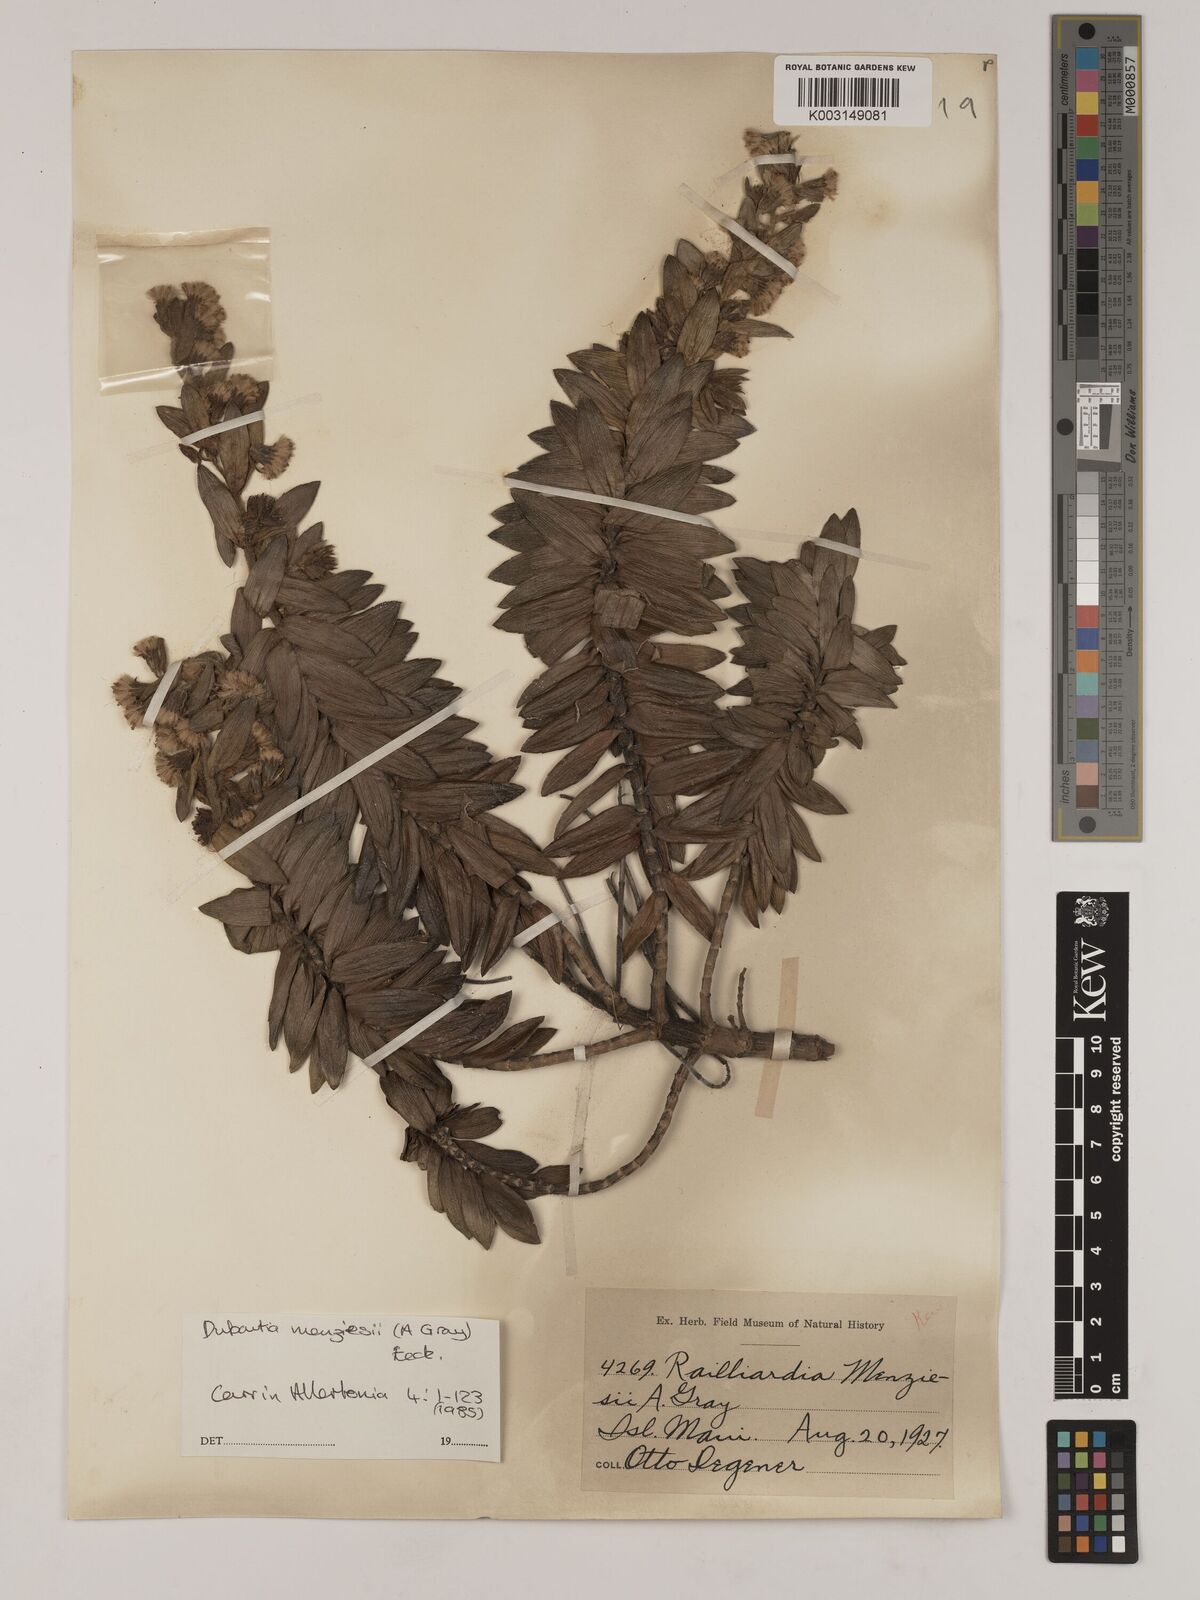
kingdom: Plantae
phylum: Tracheophyta
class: Magnoliopsida
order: Asterales
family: Asteraceae
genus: Dubautia
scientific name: Dubautia menziesii
